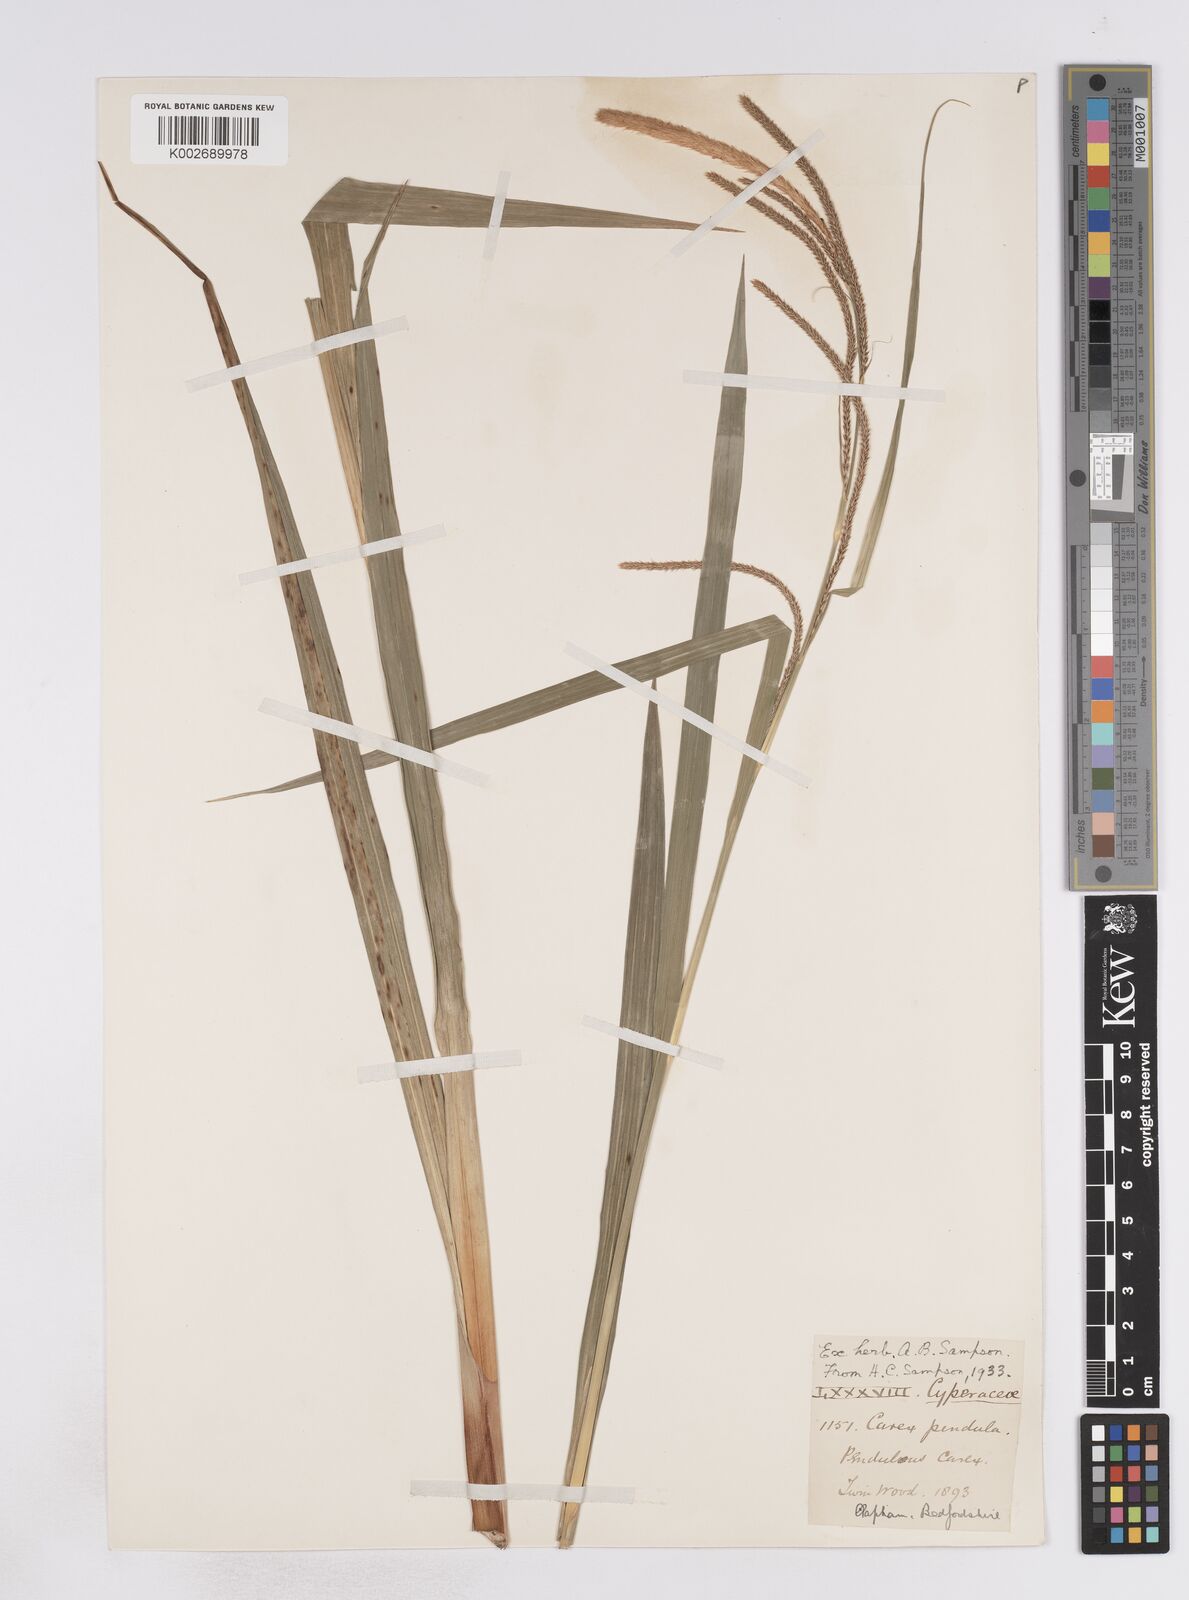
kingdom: Plantae
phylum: Tracheophyta
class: Liliopsida
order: Poales
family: Cyperaceae
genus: Carex
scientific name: Carex pendula
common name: Pendulous sedge
